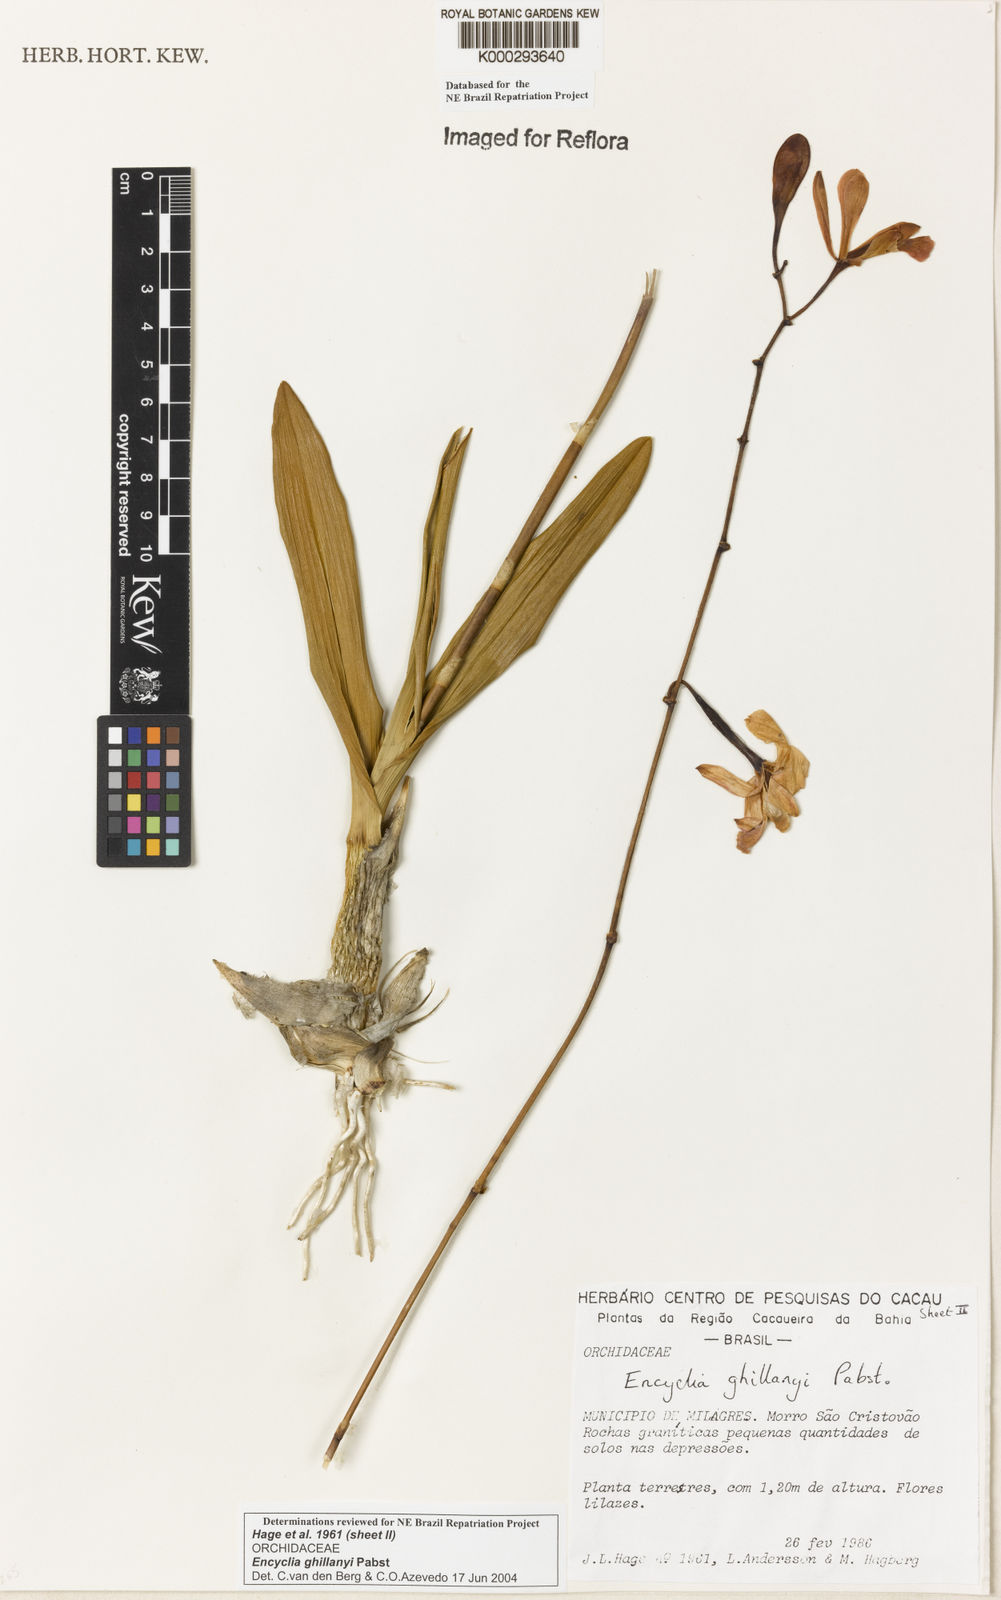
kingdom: Plantae
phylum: Tracheophyta
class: Liliopsida
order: Asparagales
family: Orchidaceae
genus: Encyclia
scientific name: Encyclia jenischiana
